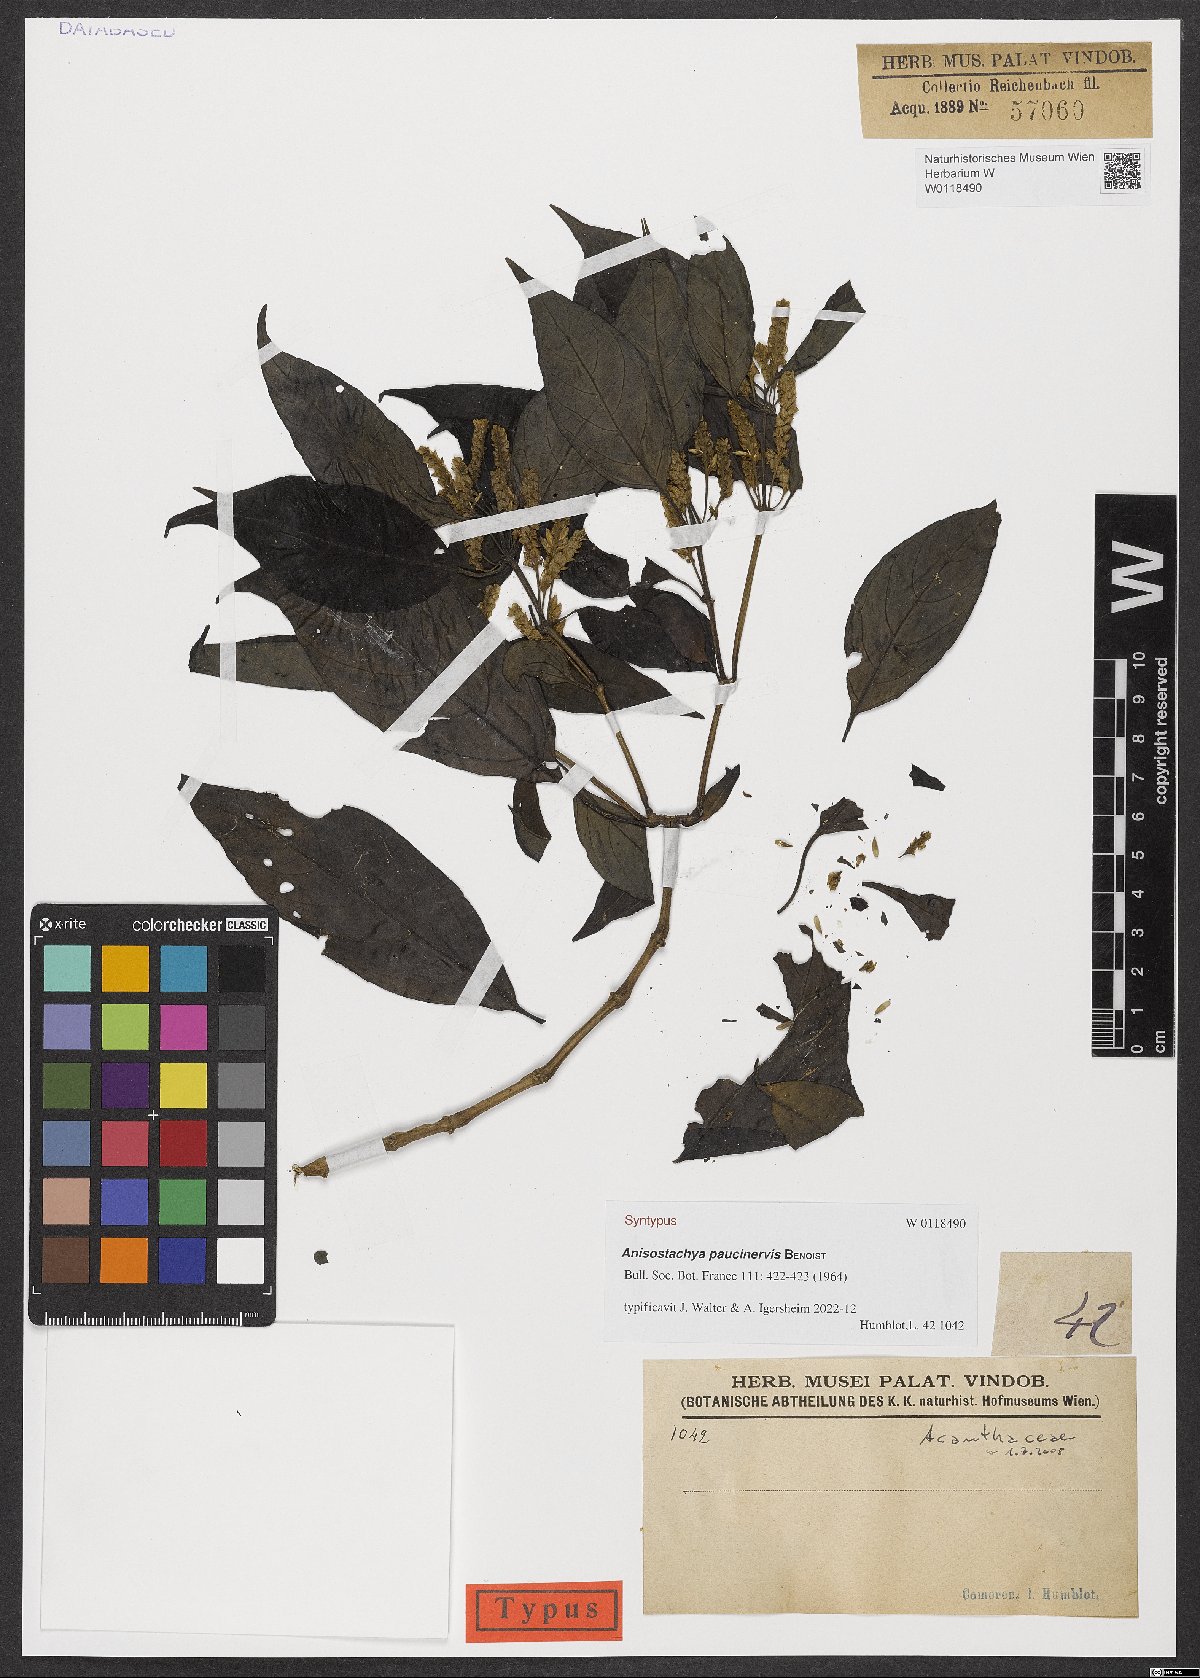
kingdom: Plantae
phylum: Tracheophyta
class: Magnoliopsida
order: Lamiales
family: Acanthaceae
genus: Anisostachya
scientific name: Anisostachya paucinervis
